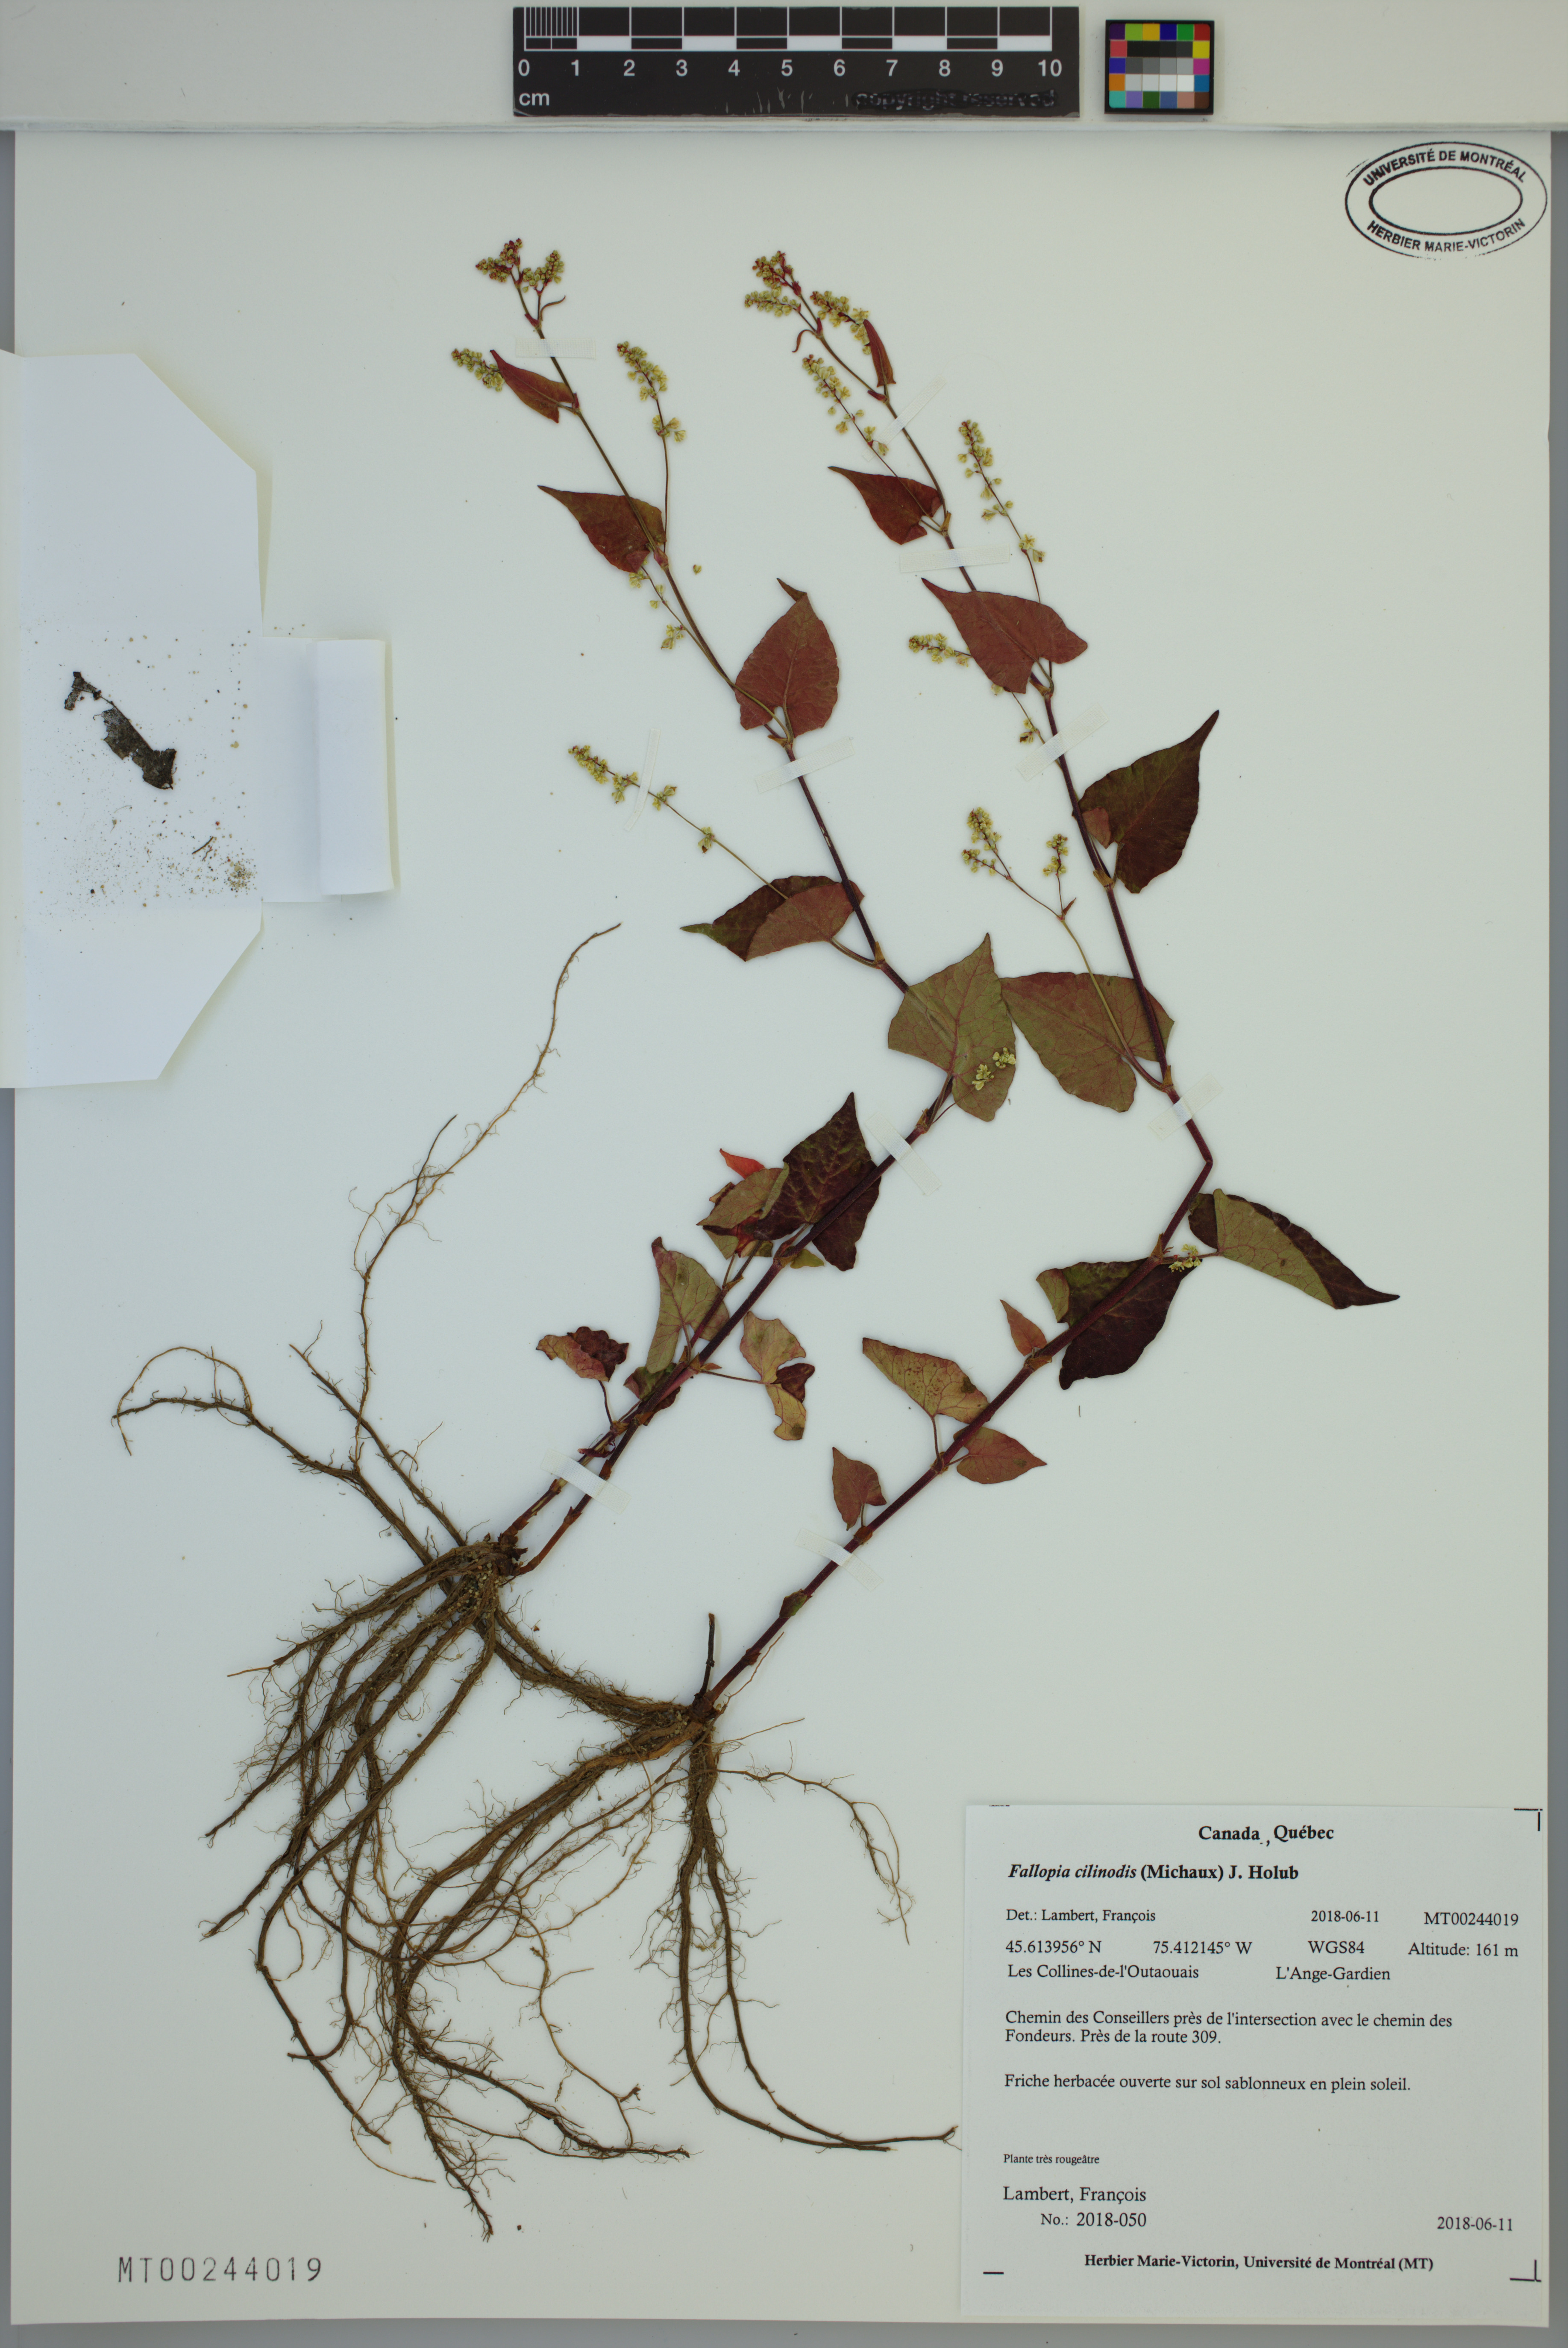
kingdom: Plantae
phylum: Tracheophyta
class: Magnoliopsida
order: Caryophyllales
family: Polygonaceae
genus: Parogonum
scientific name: Parogonum ciliinode
